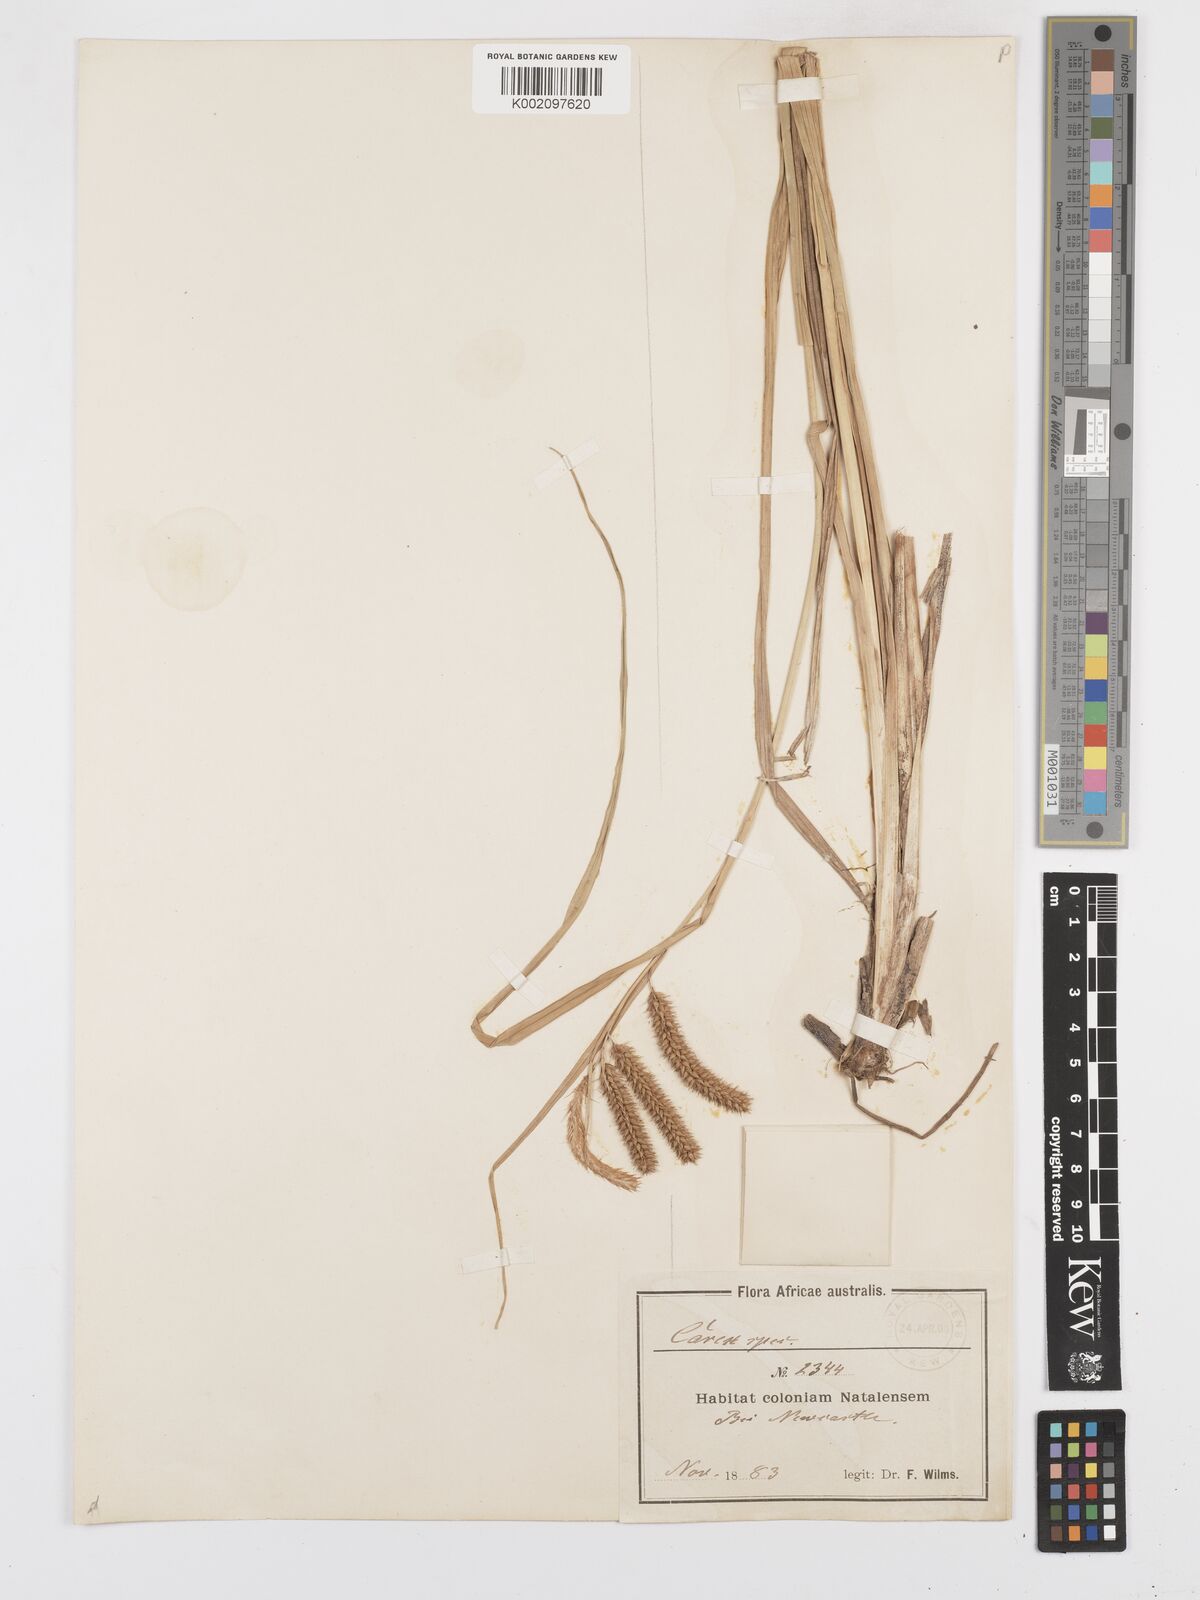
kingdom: Plantae
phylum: Tracheophyta
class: Liliopsida
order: Poales
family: Cyperaceae
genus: Carex
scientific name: Carex cognata
